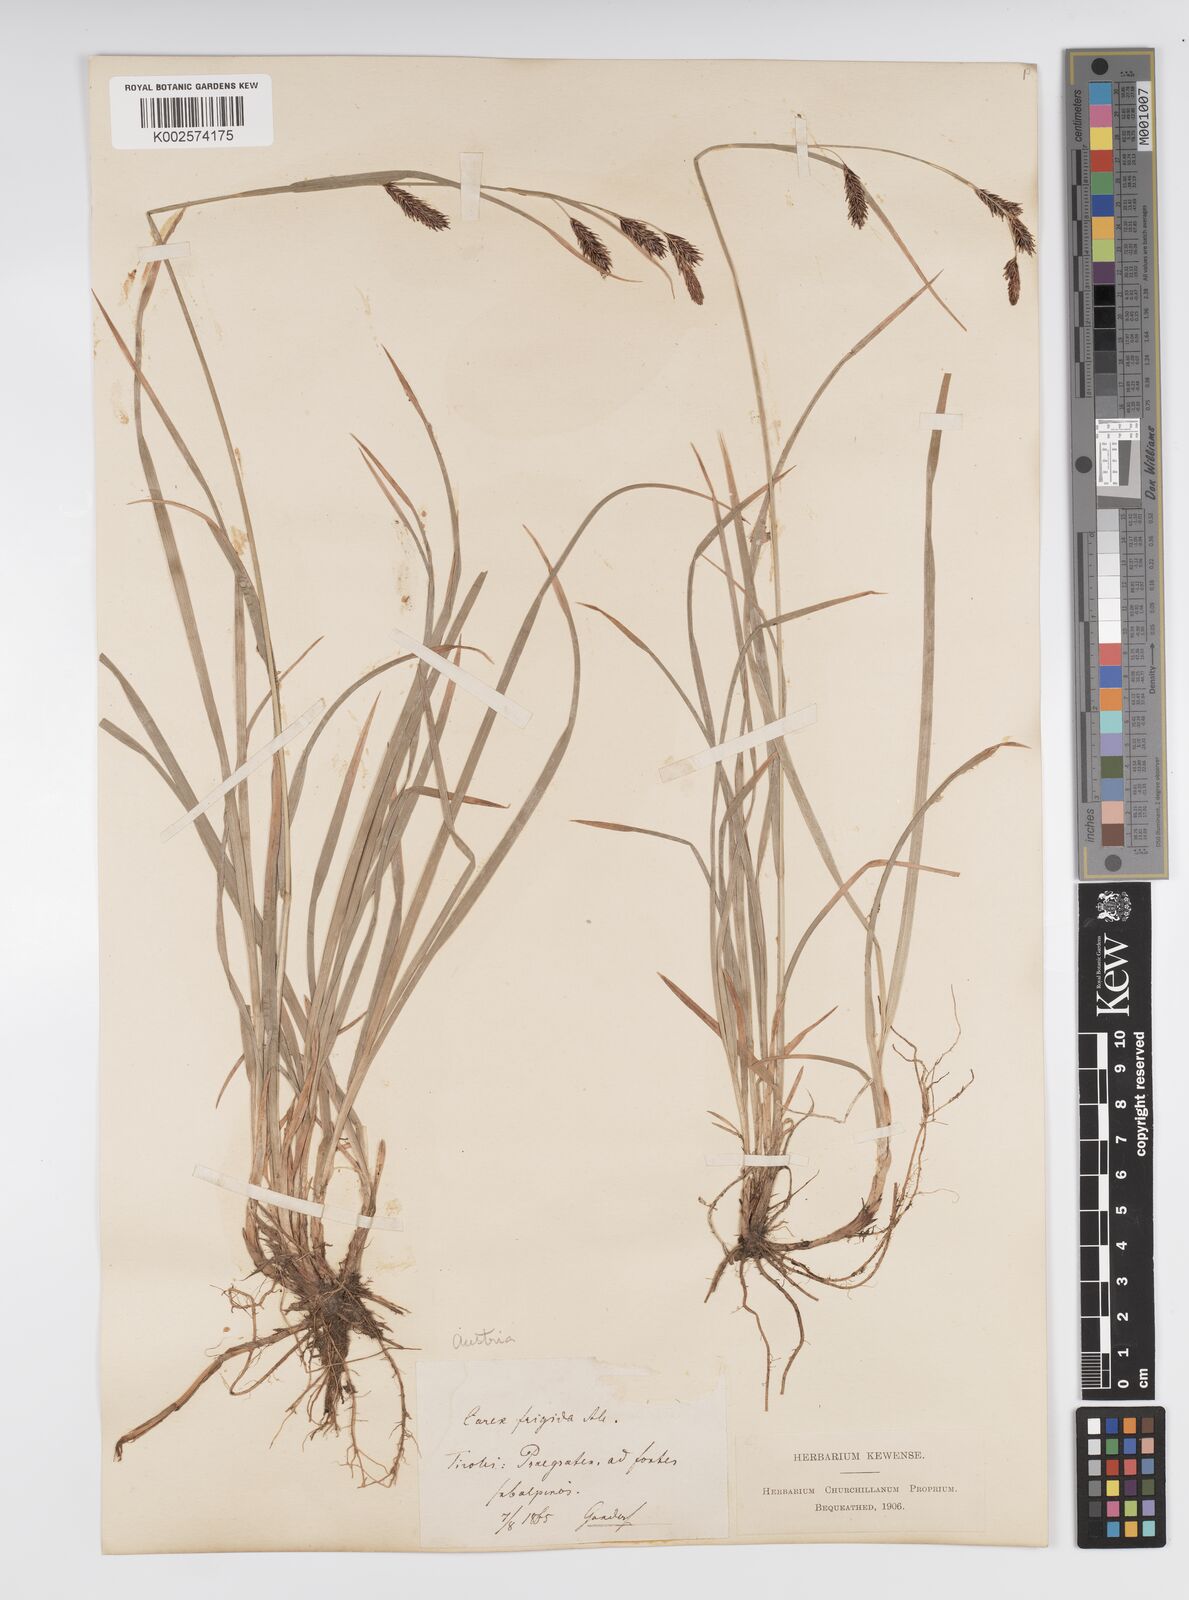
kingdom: Plantae
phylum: Tracheophyta
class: Liliopsida
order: Poales
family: Cyperaceae
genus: Carex
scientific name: Carex frigida
